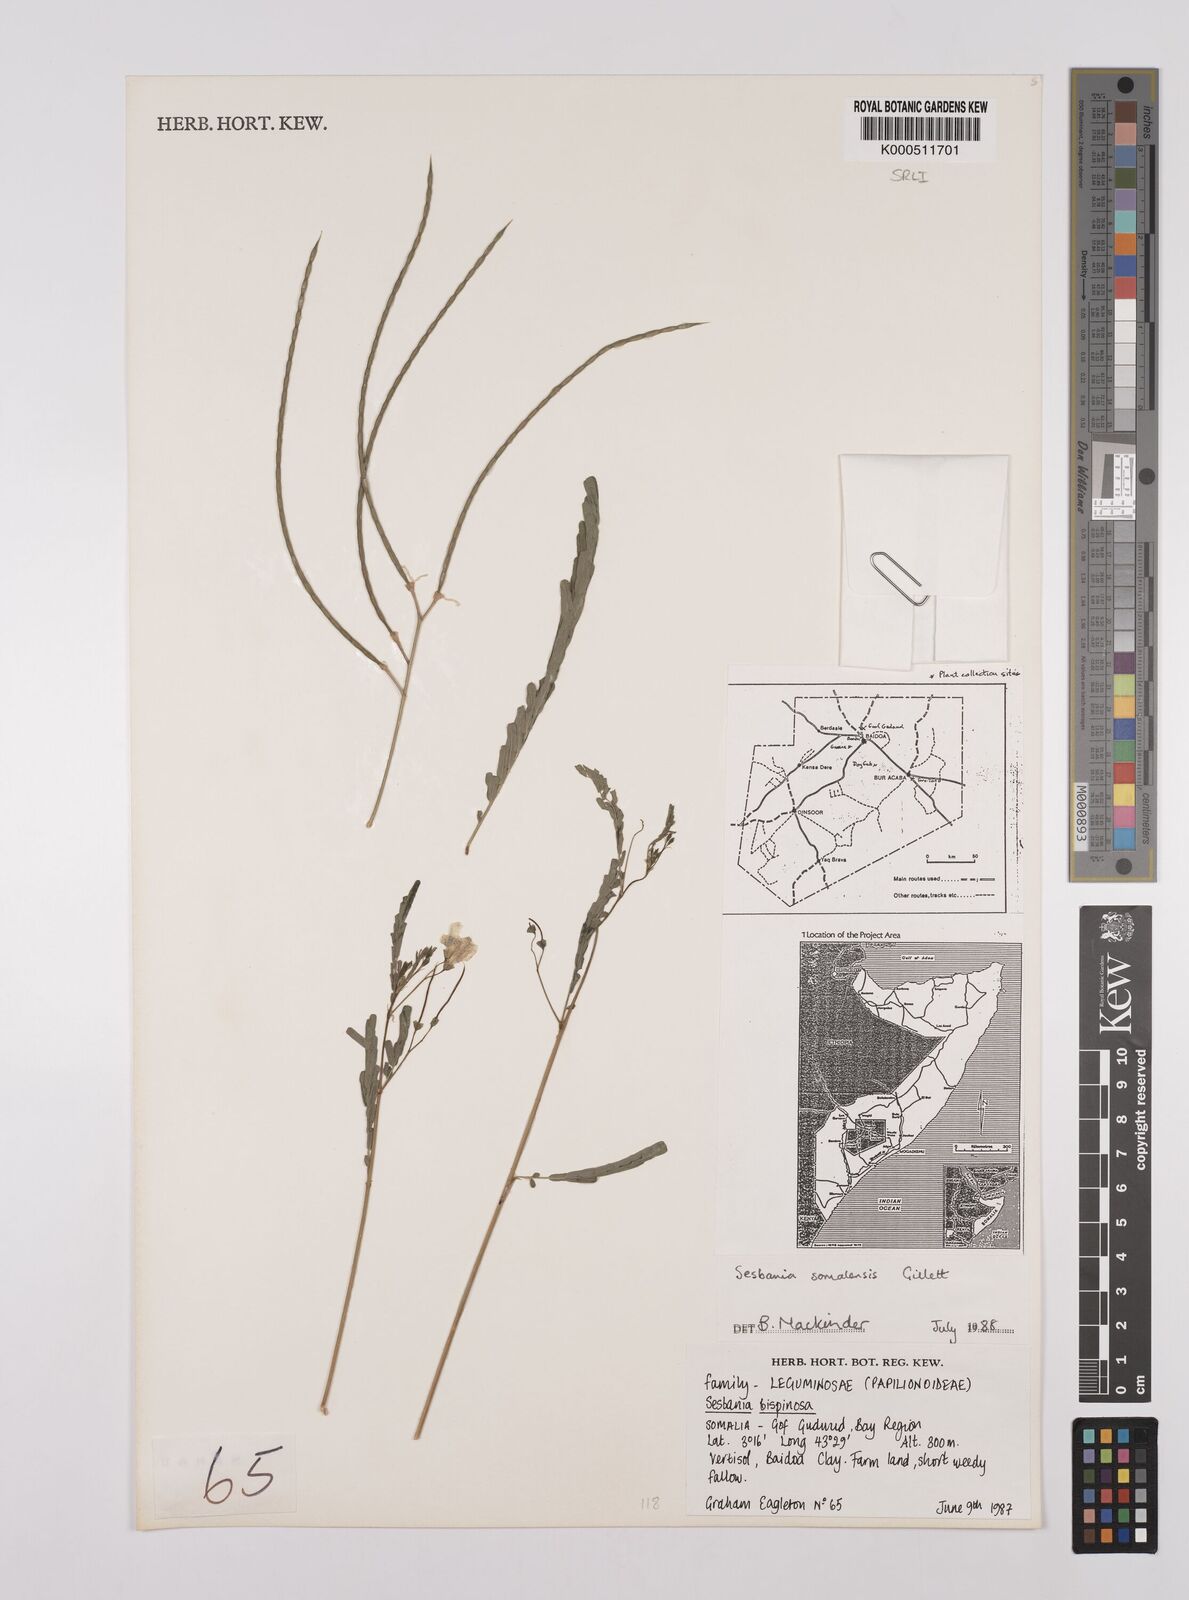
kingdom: Plantae
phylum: Tracheophyta
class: Magnoliopsida
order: Fabales
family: Fabaceae
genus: Sesbania
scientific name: Sesbania somalensis
